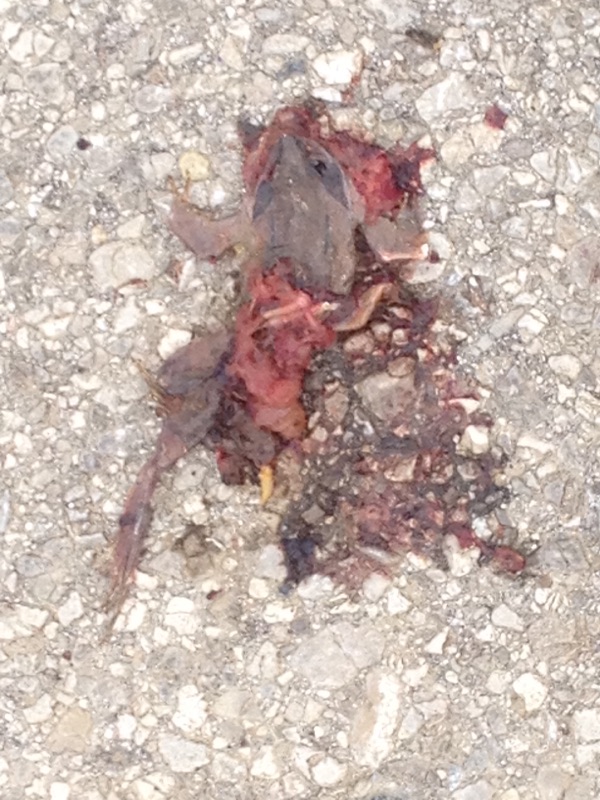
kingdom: Animalia
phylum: Chordata
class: Amphibia
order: Anura
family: Ranidae
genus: Rana
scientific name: Rana dalmatina
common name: Agile frog
